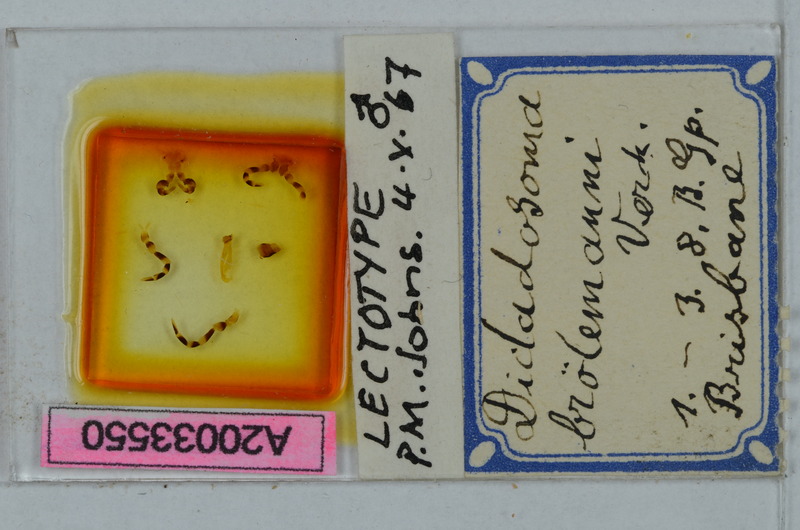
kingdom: Animalia
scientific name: Animalia
